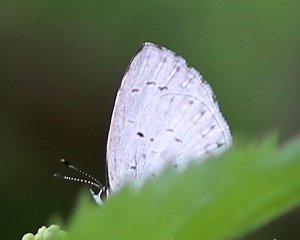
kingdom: Animalia
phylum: Arthropoda
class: Insecta
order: Lepidoptera
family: Lycaenidae
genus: Cyaniris
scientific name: Cyaniris neglecta
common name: Summer Azure
